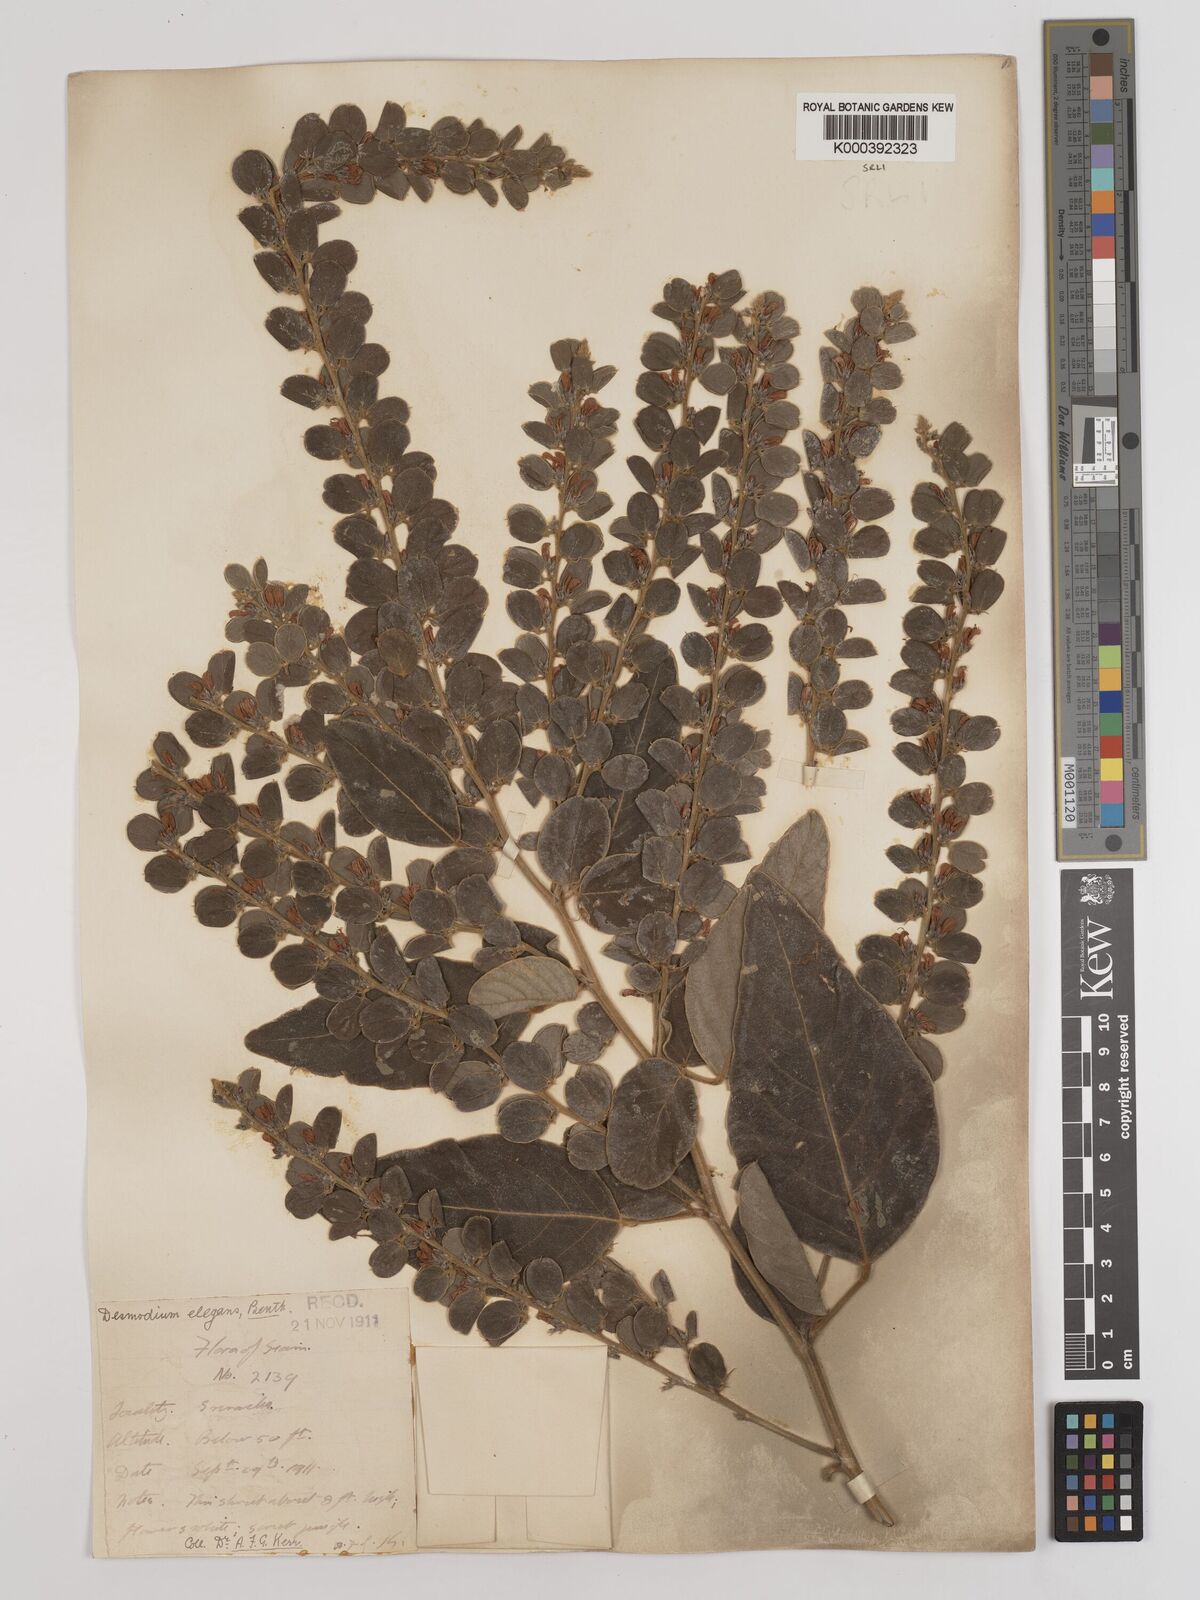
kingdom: Plantae
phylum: Tracheophyta
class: Magnoliopsida
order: Fabales
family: Fabaceae
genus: Phyllodium
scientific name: Phyllodium elegans
